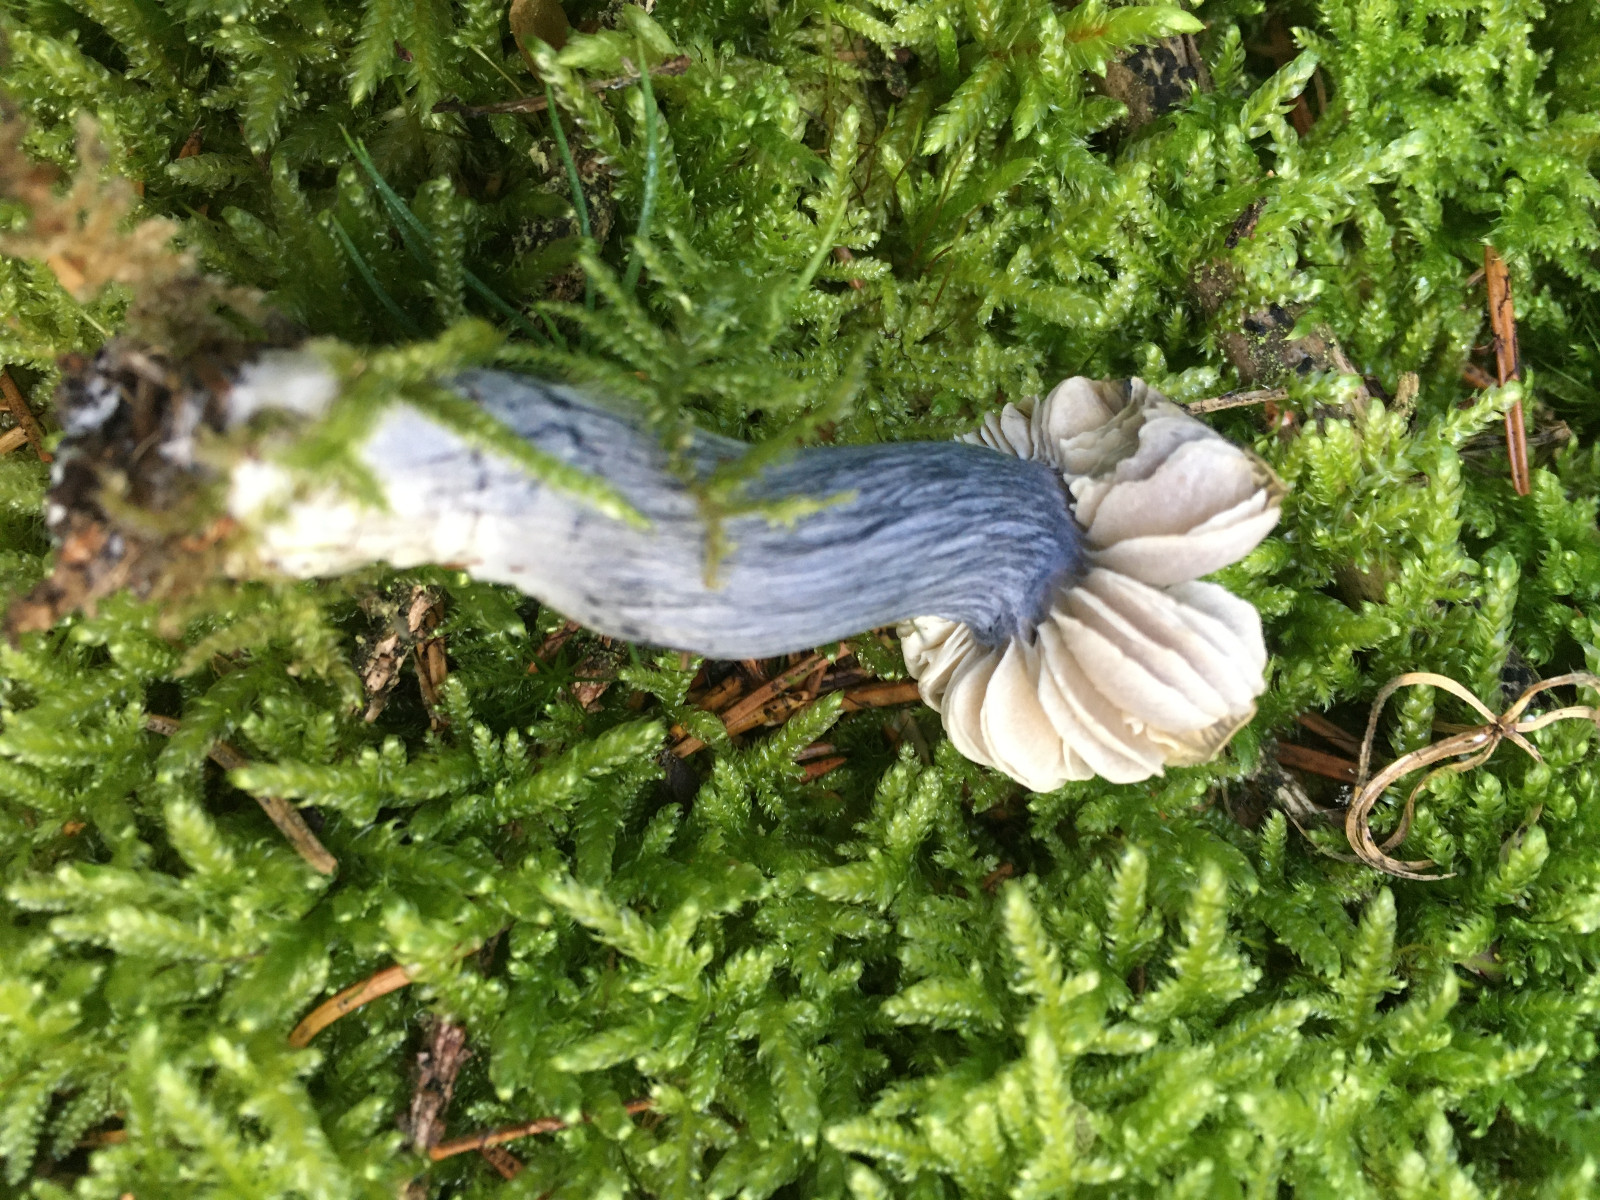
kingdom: Fungi
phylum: Basidiomycota
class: Agaricomycetes
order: Agaricales
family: Entolomataceae
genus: Entocybe
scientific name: Entocybe nitida
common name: stålblå rødblad
